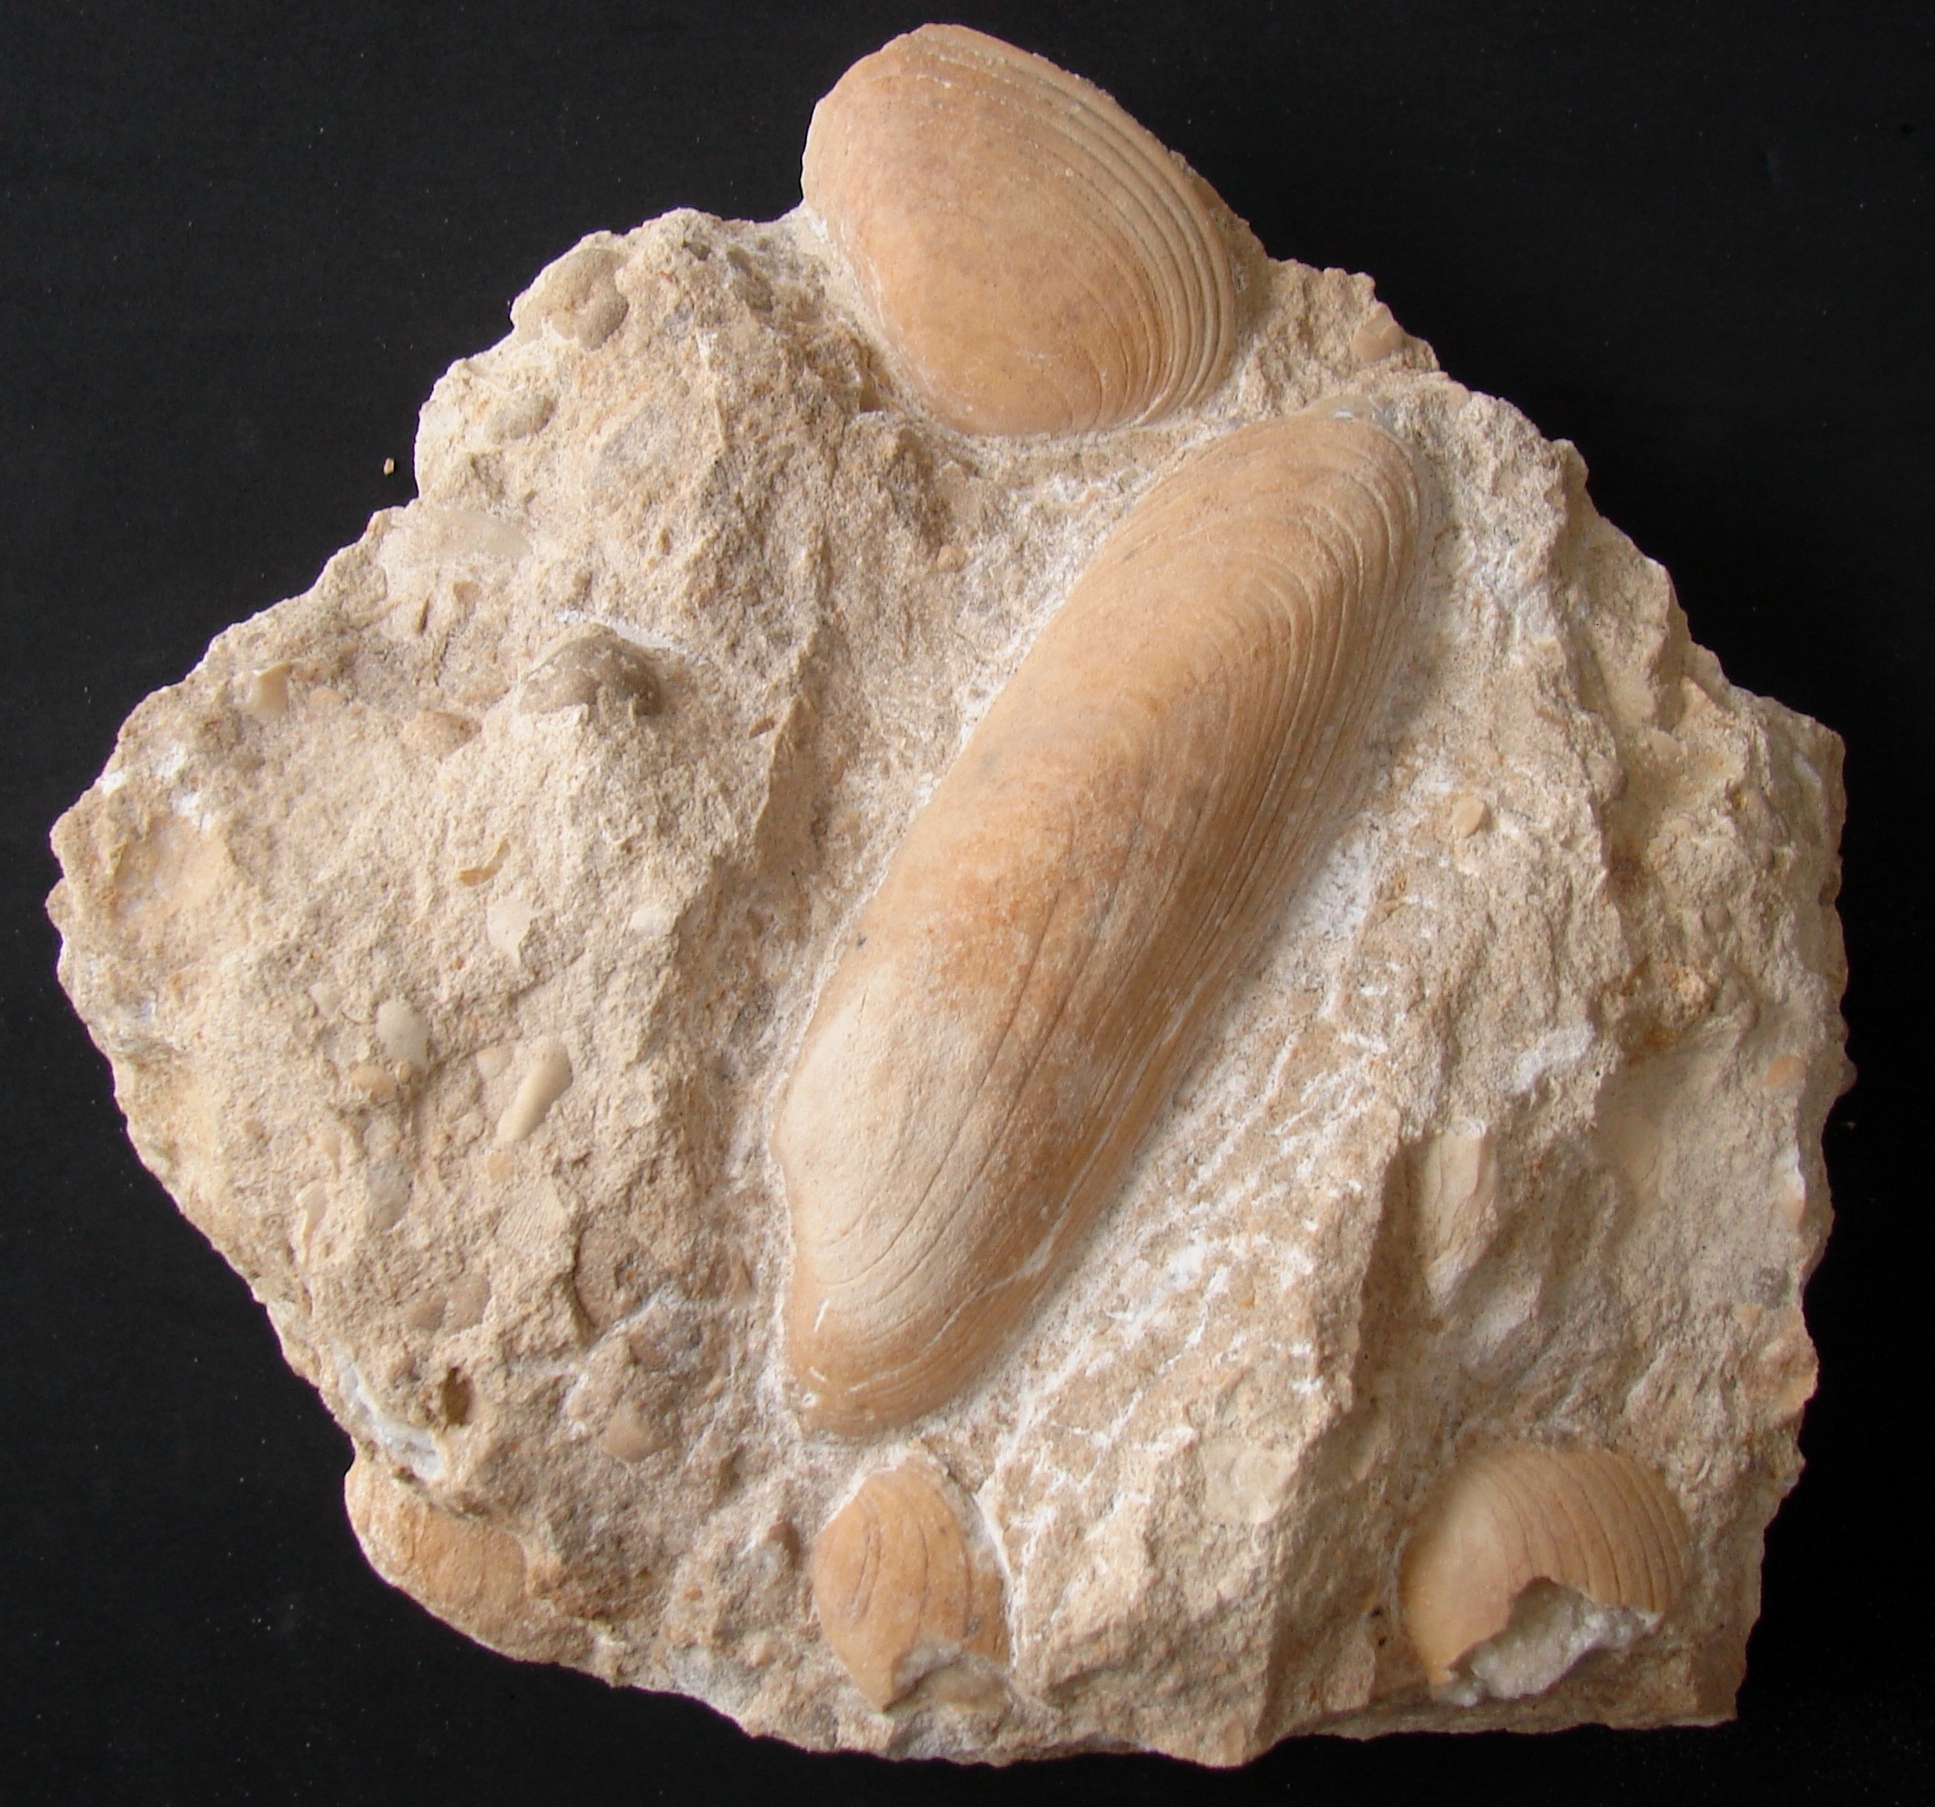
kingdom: Animalia
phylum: Mollusca
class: Bivalvia
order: Carditida
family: Cardiniidae
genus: Cardinia
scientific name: Cardinia
